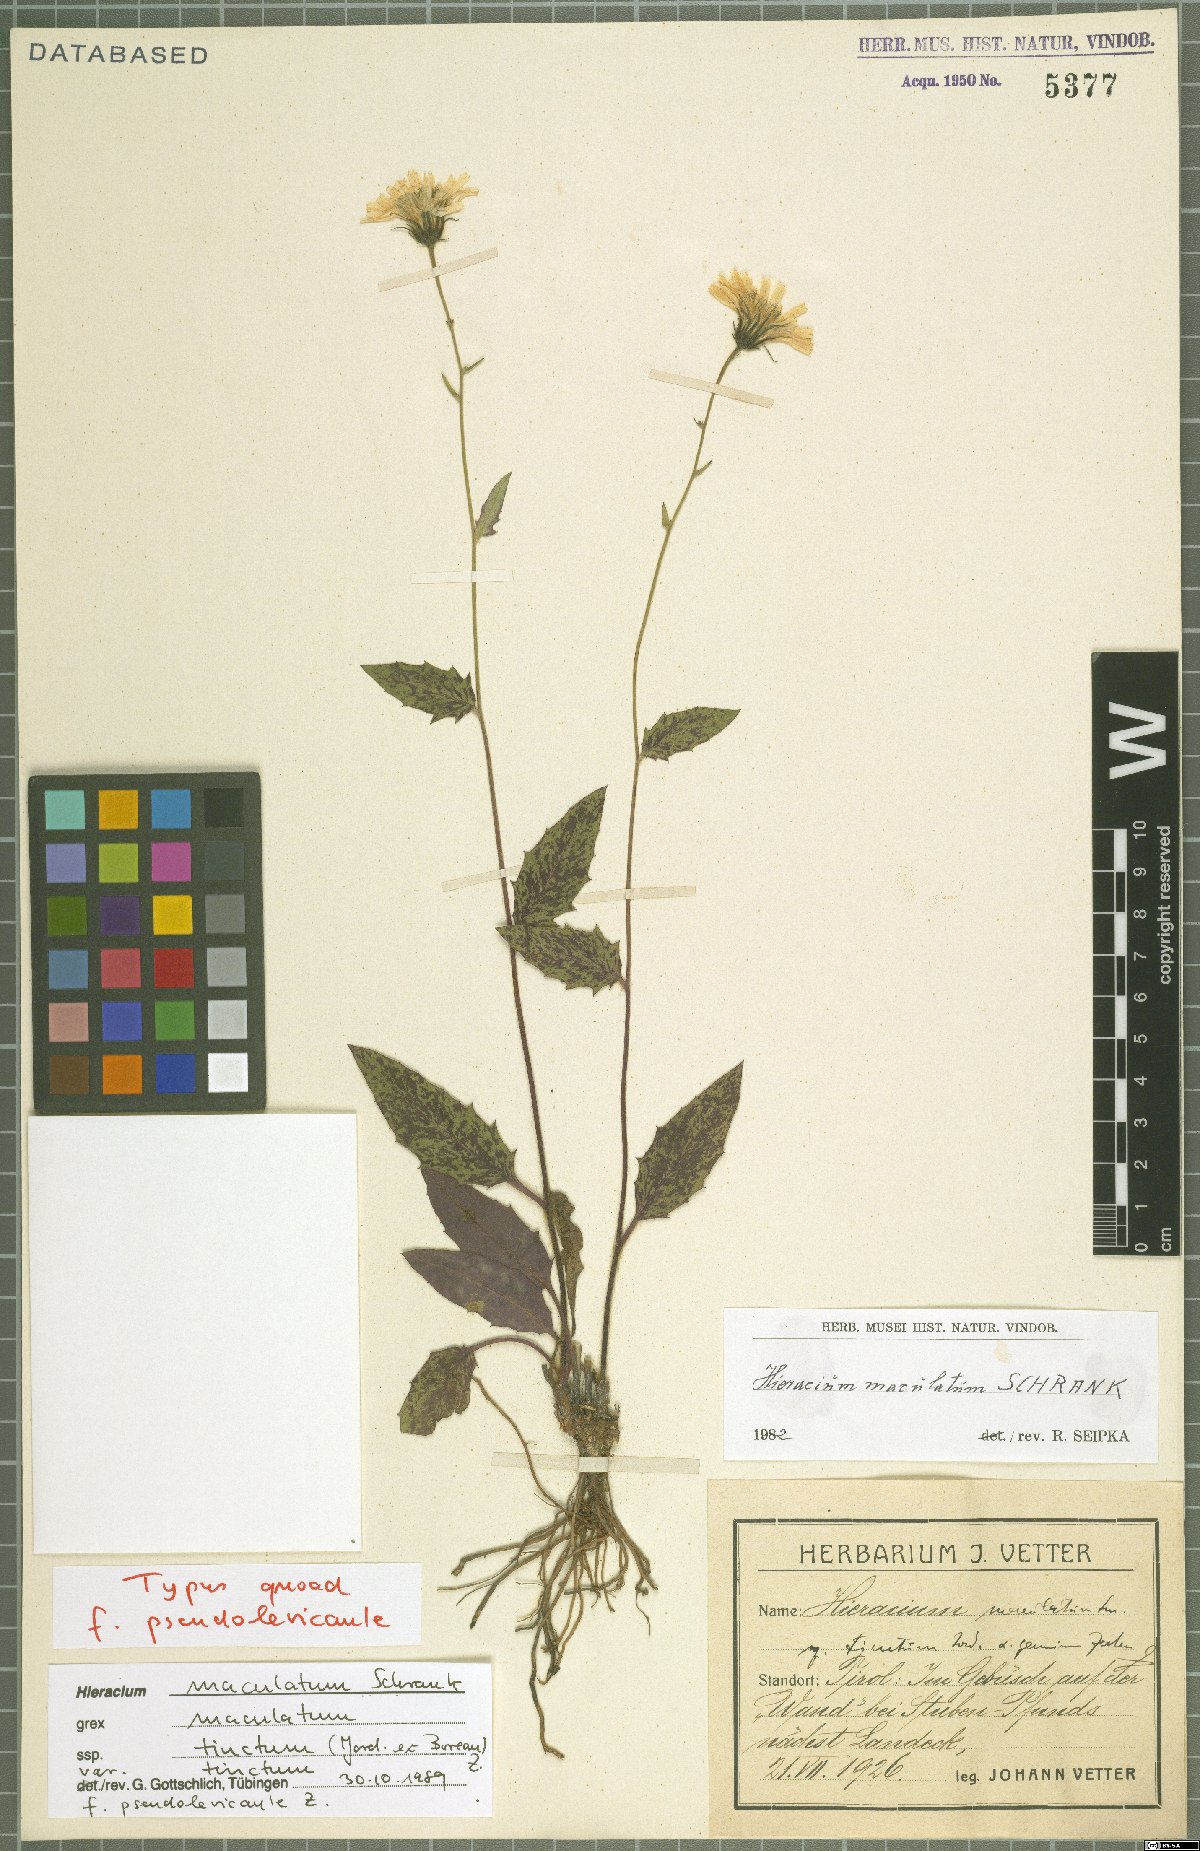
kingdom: Plantae
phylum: Tracheophyta
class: Magnoliopsida
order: Asterales
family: Asteraceae
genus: Hieracium
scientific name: Hieracium maculatum
